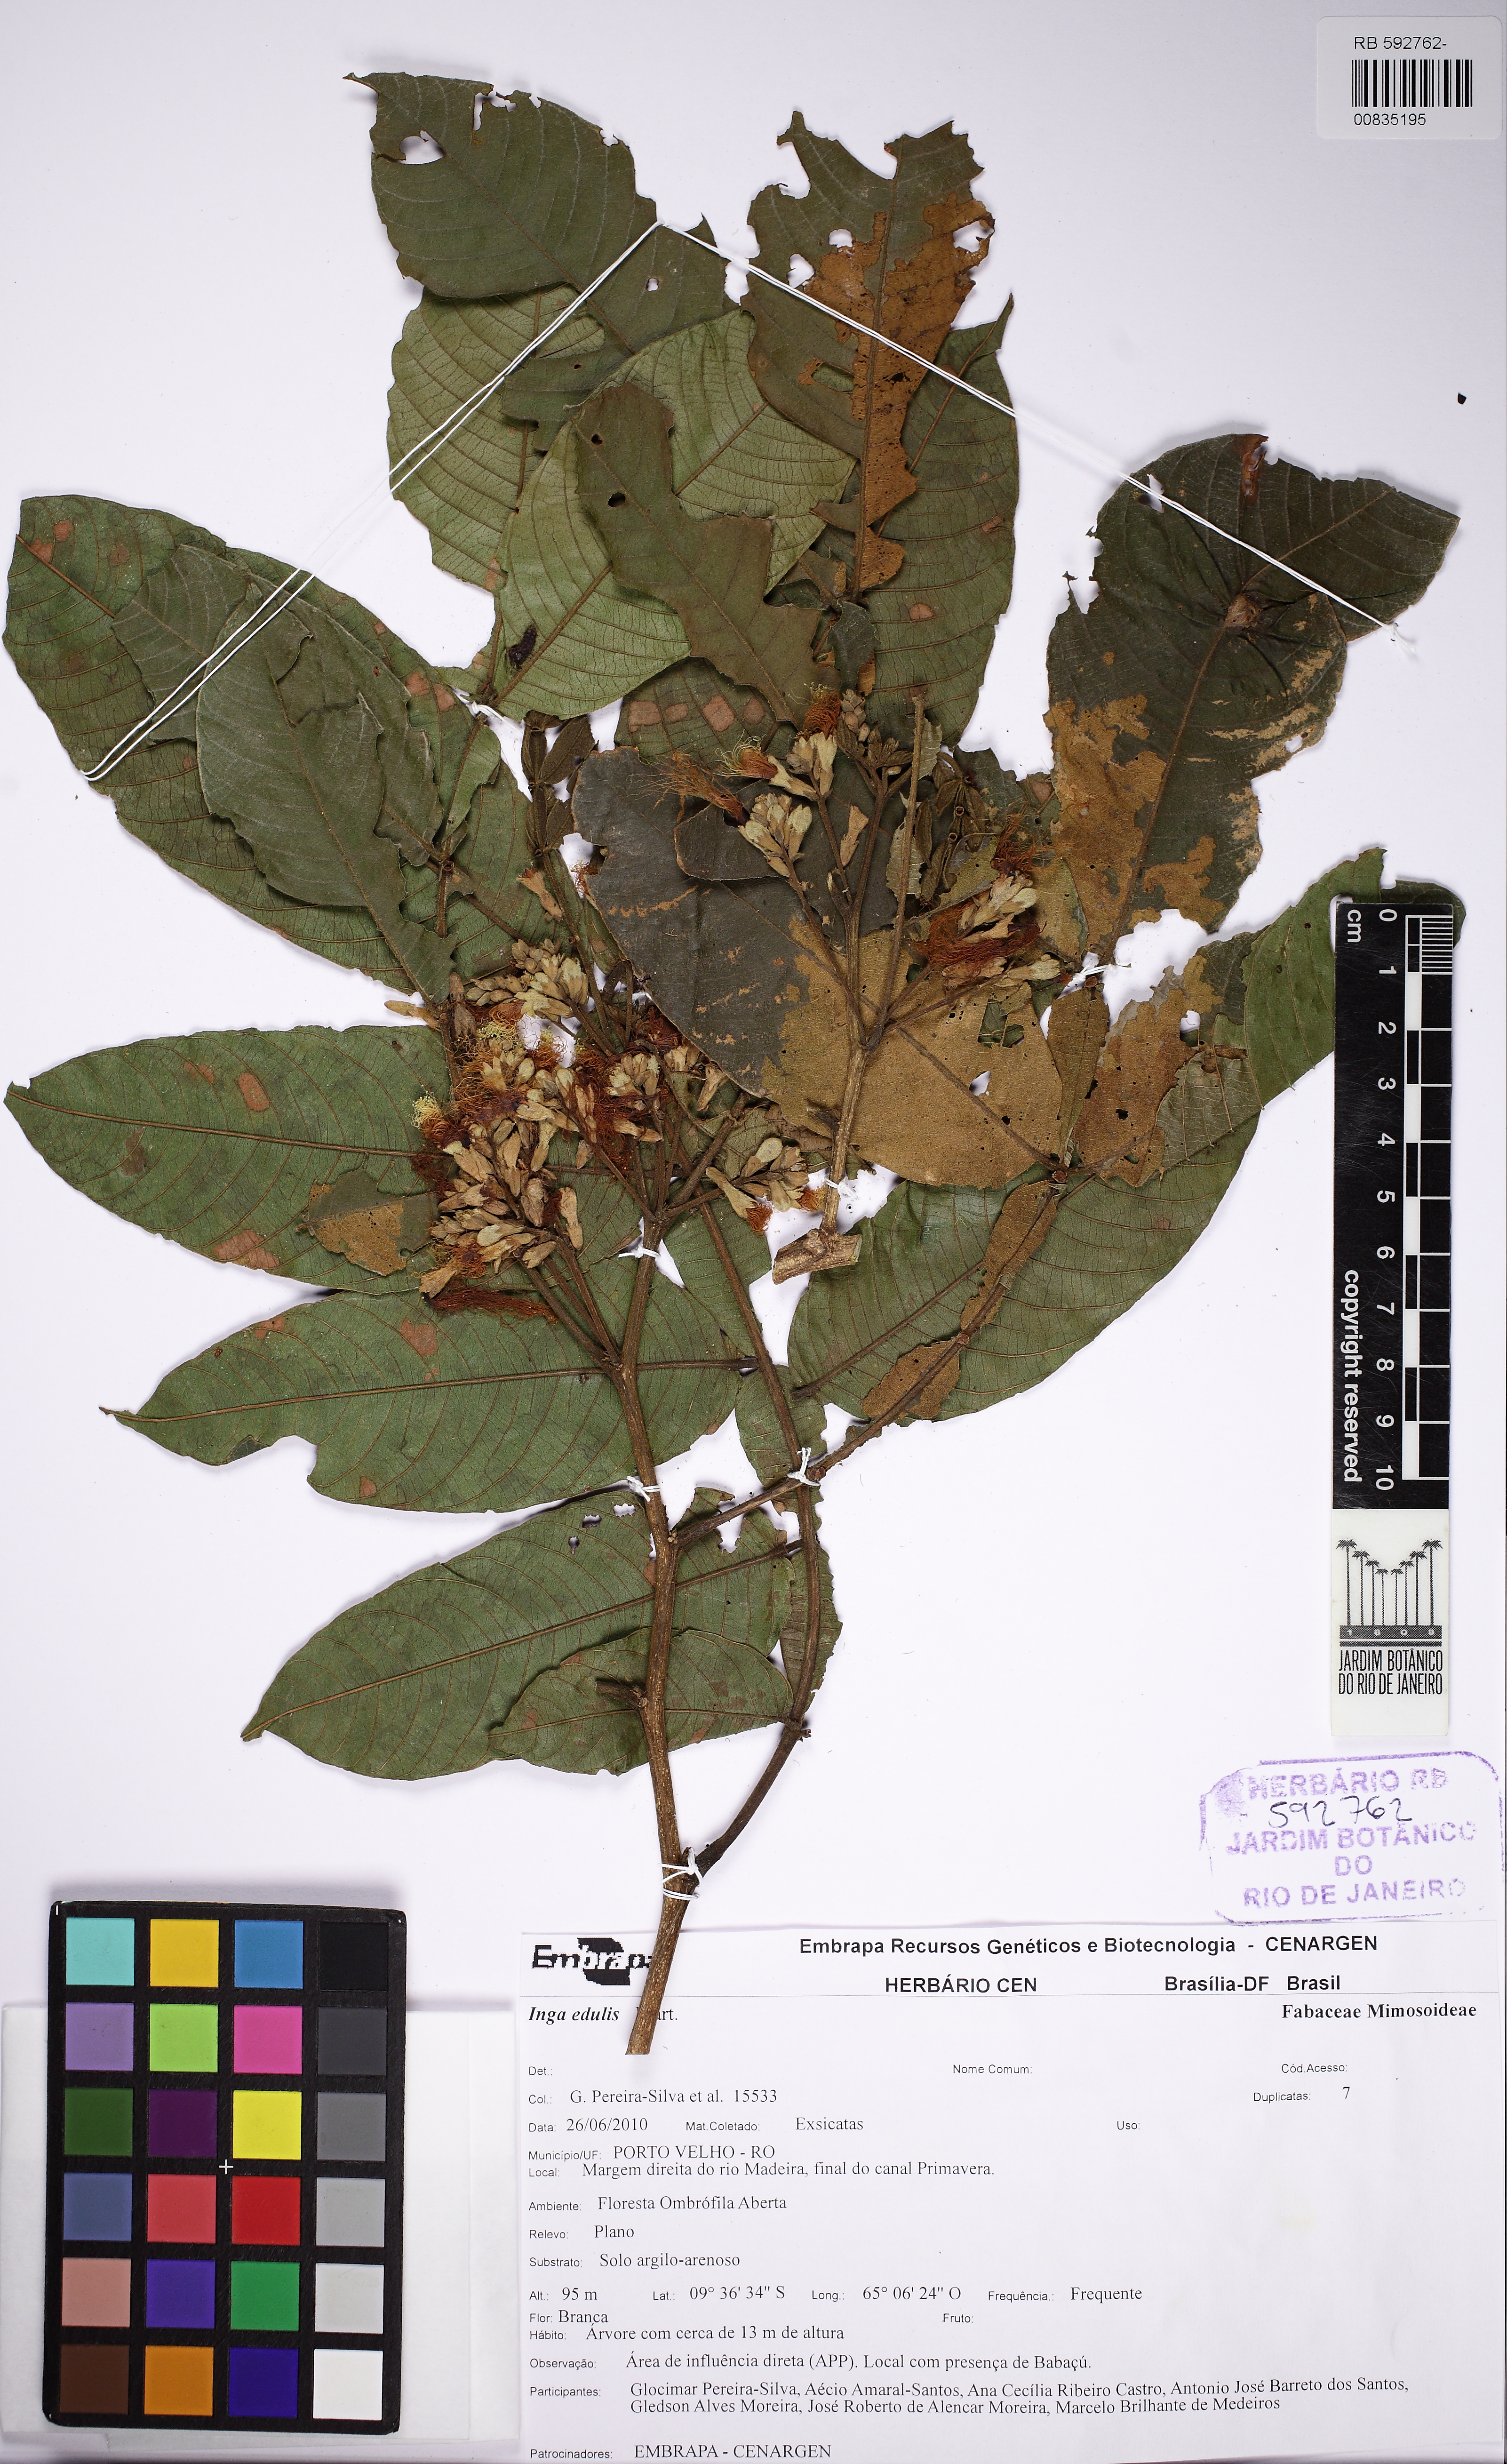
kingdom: Plantae
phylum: Tracheophyta
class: Magnoliopsida
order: Fabales
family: Fabaceae
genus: Inga
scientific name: Inga edulis
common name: Ice cream bean
